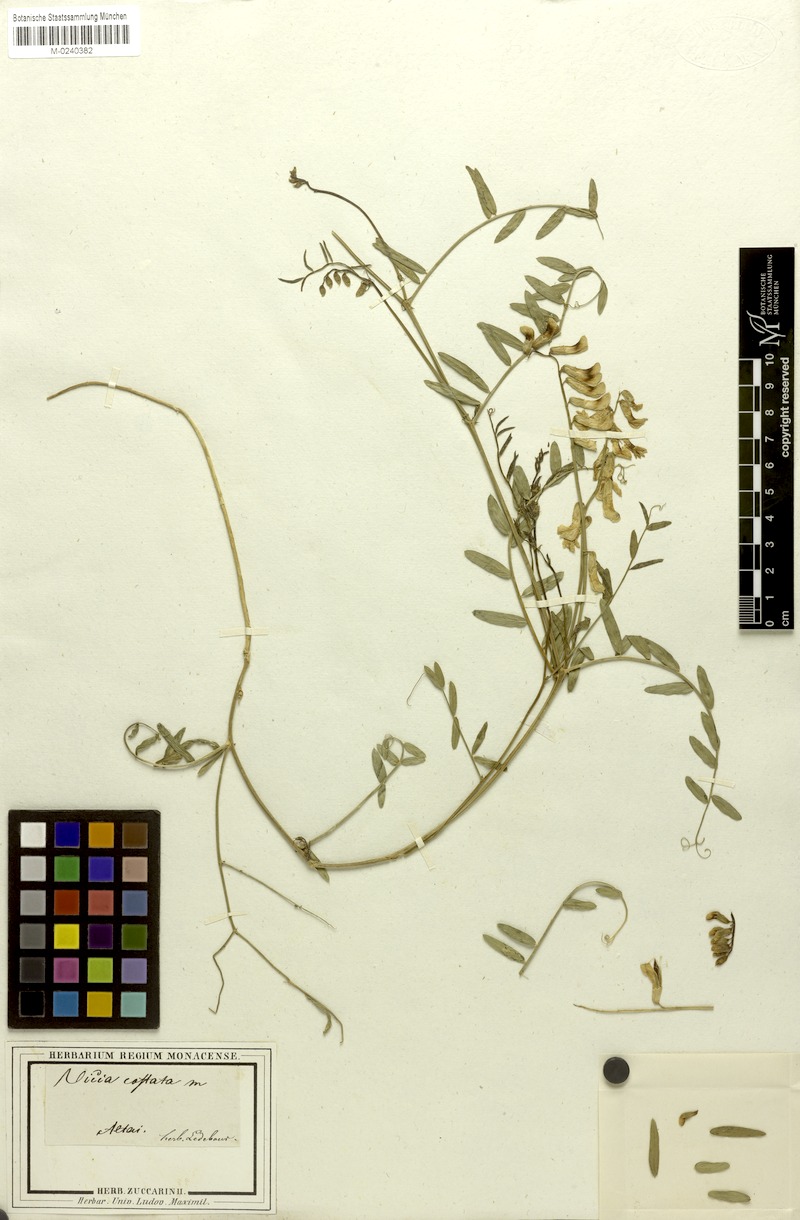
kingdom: Plantae
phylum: Tracheophyta
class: Magnoliopsida
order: Fabales
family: Fabaceae
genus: Vicia
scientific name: Vicia costata
